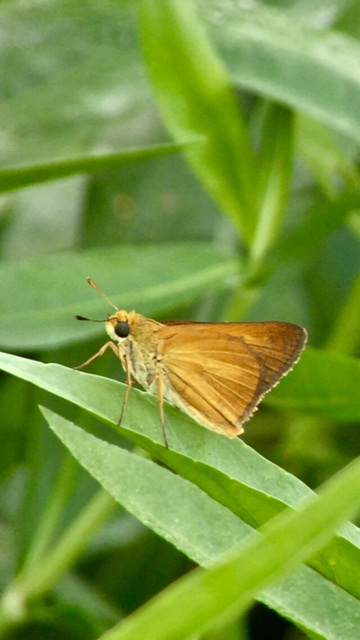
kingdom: Animalia
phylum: Arthropoda
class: Insecta
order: Lepidoptera
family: Hesperiidae
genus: Euphyes
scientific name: Euphyes dion
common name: Dion Skipper
